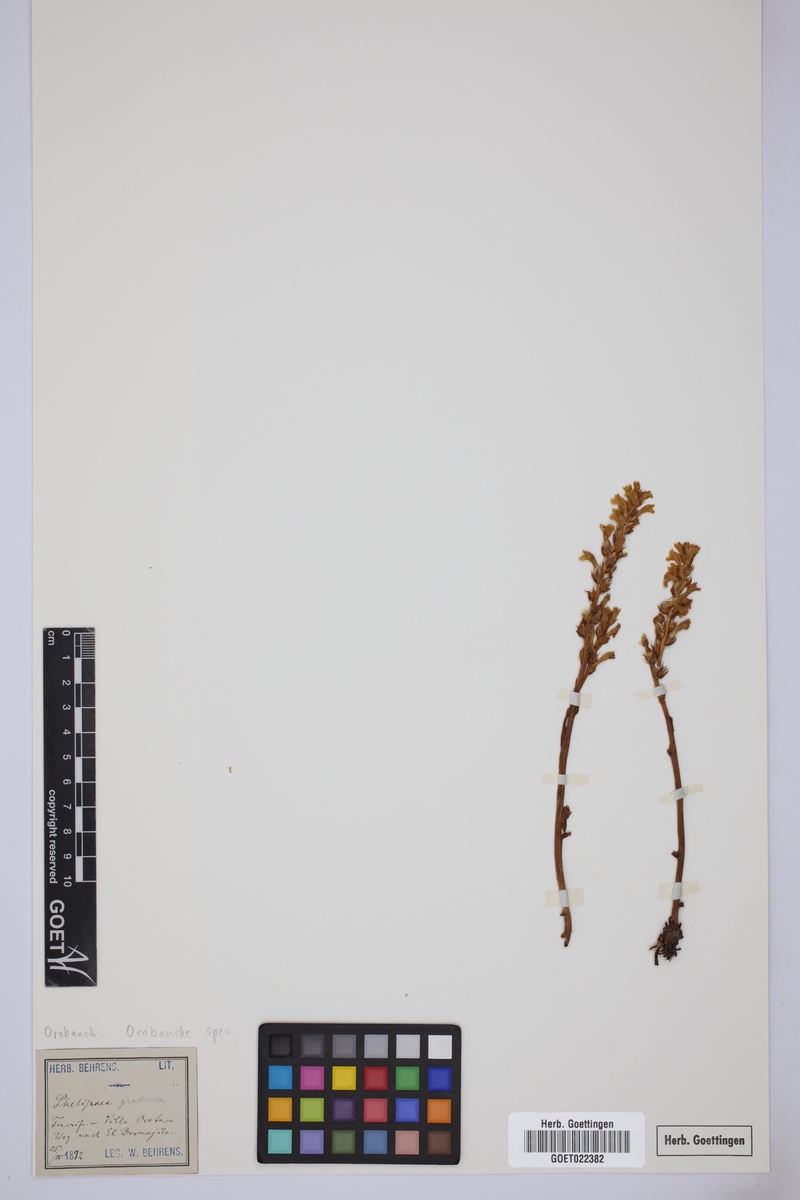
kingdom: Plantae
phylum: Tracheophyta
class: Magnoliopsida
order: Lamiales
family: Orobanchaceae
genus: Orobanche
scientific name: Orobanche
